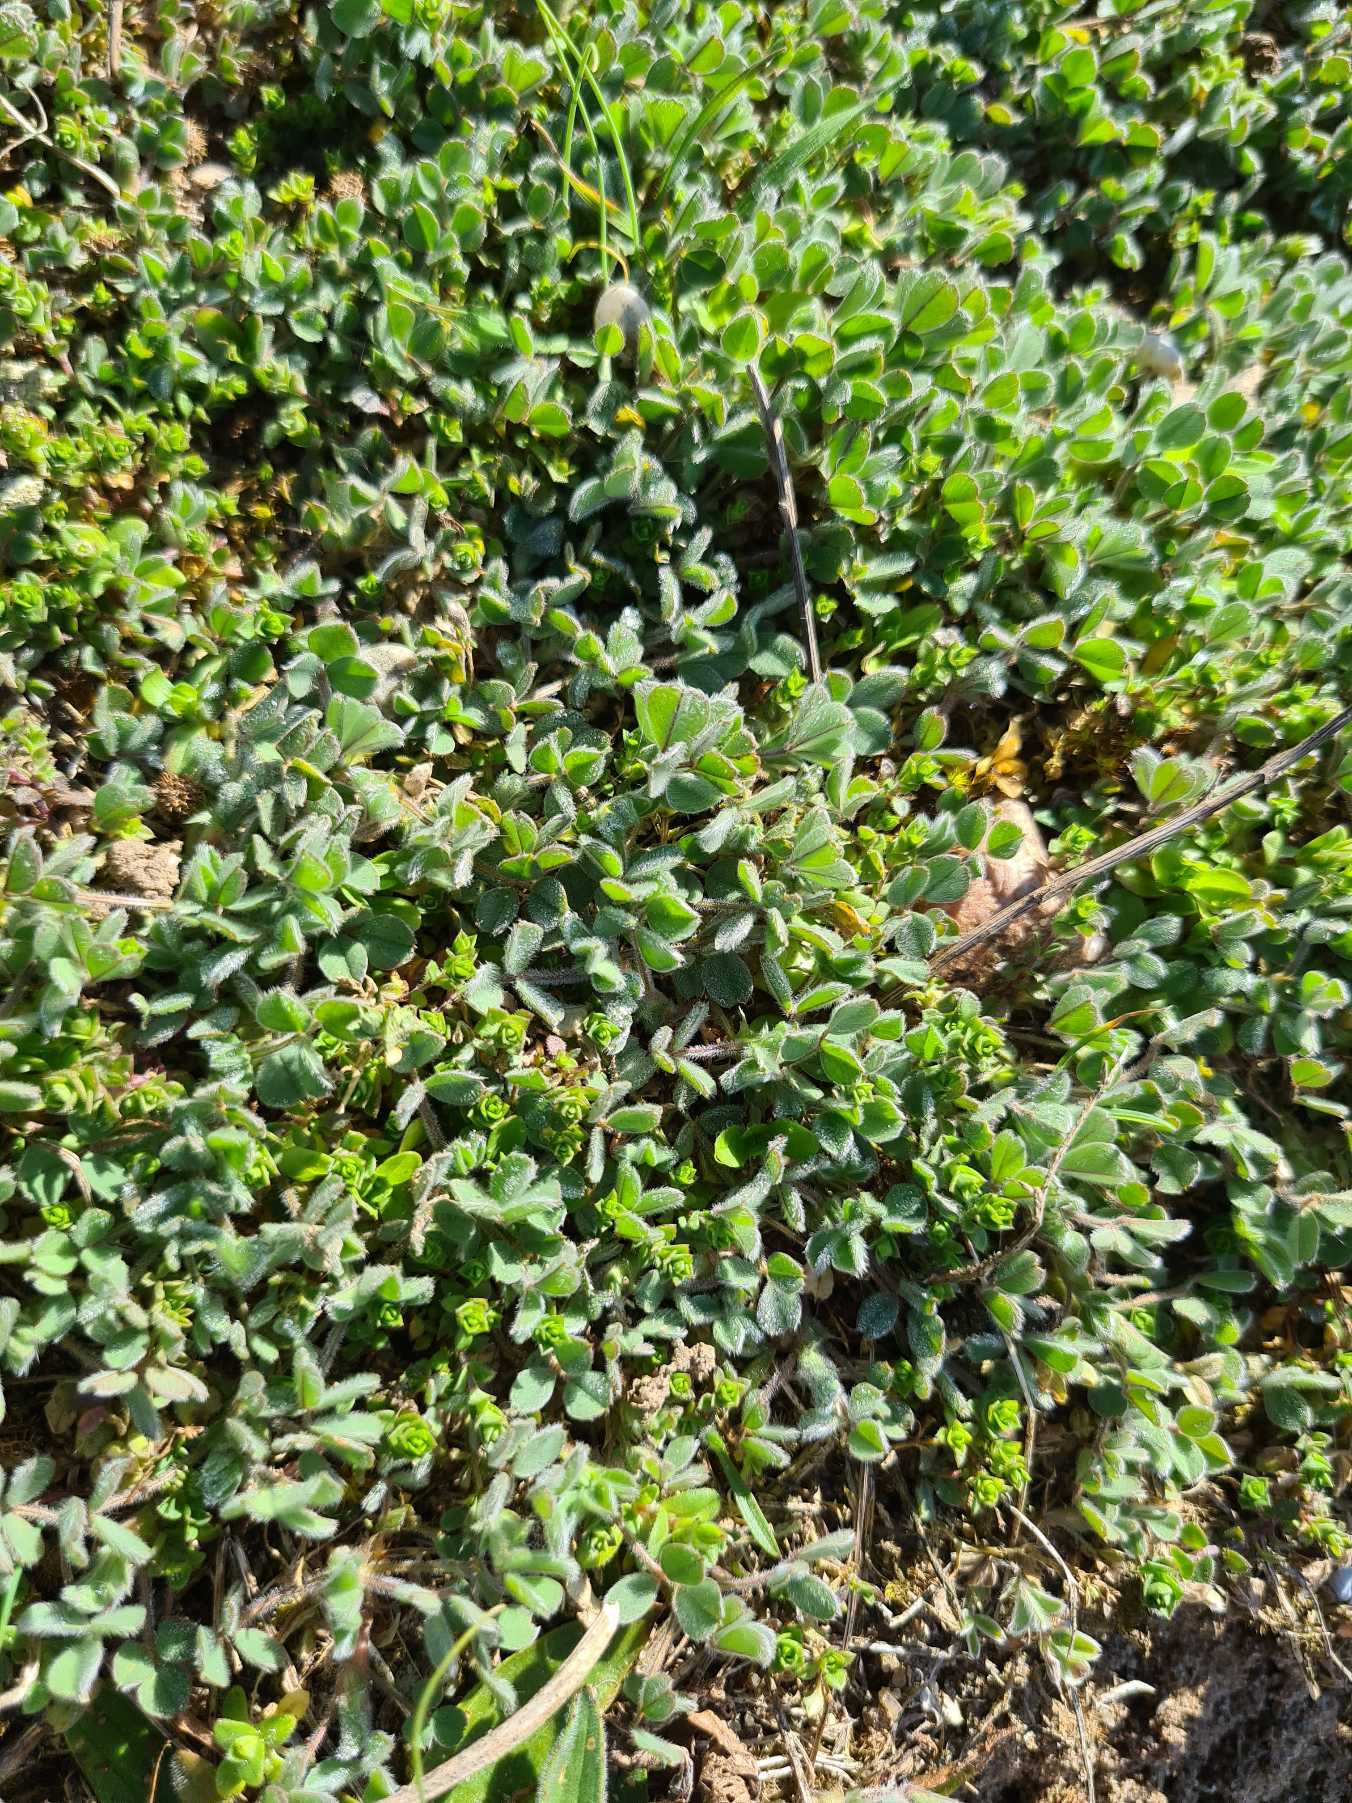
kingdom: Plantae
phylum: Tracheophyta
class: Magnoliopsida
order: Fabales
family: Fabaceae
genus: Medicago
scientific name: Medicago minima
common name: Liden sneglebælg
